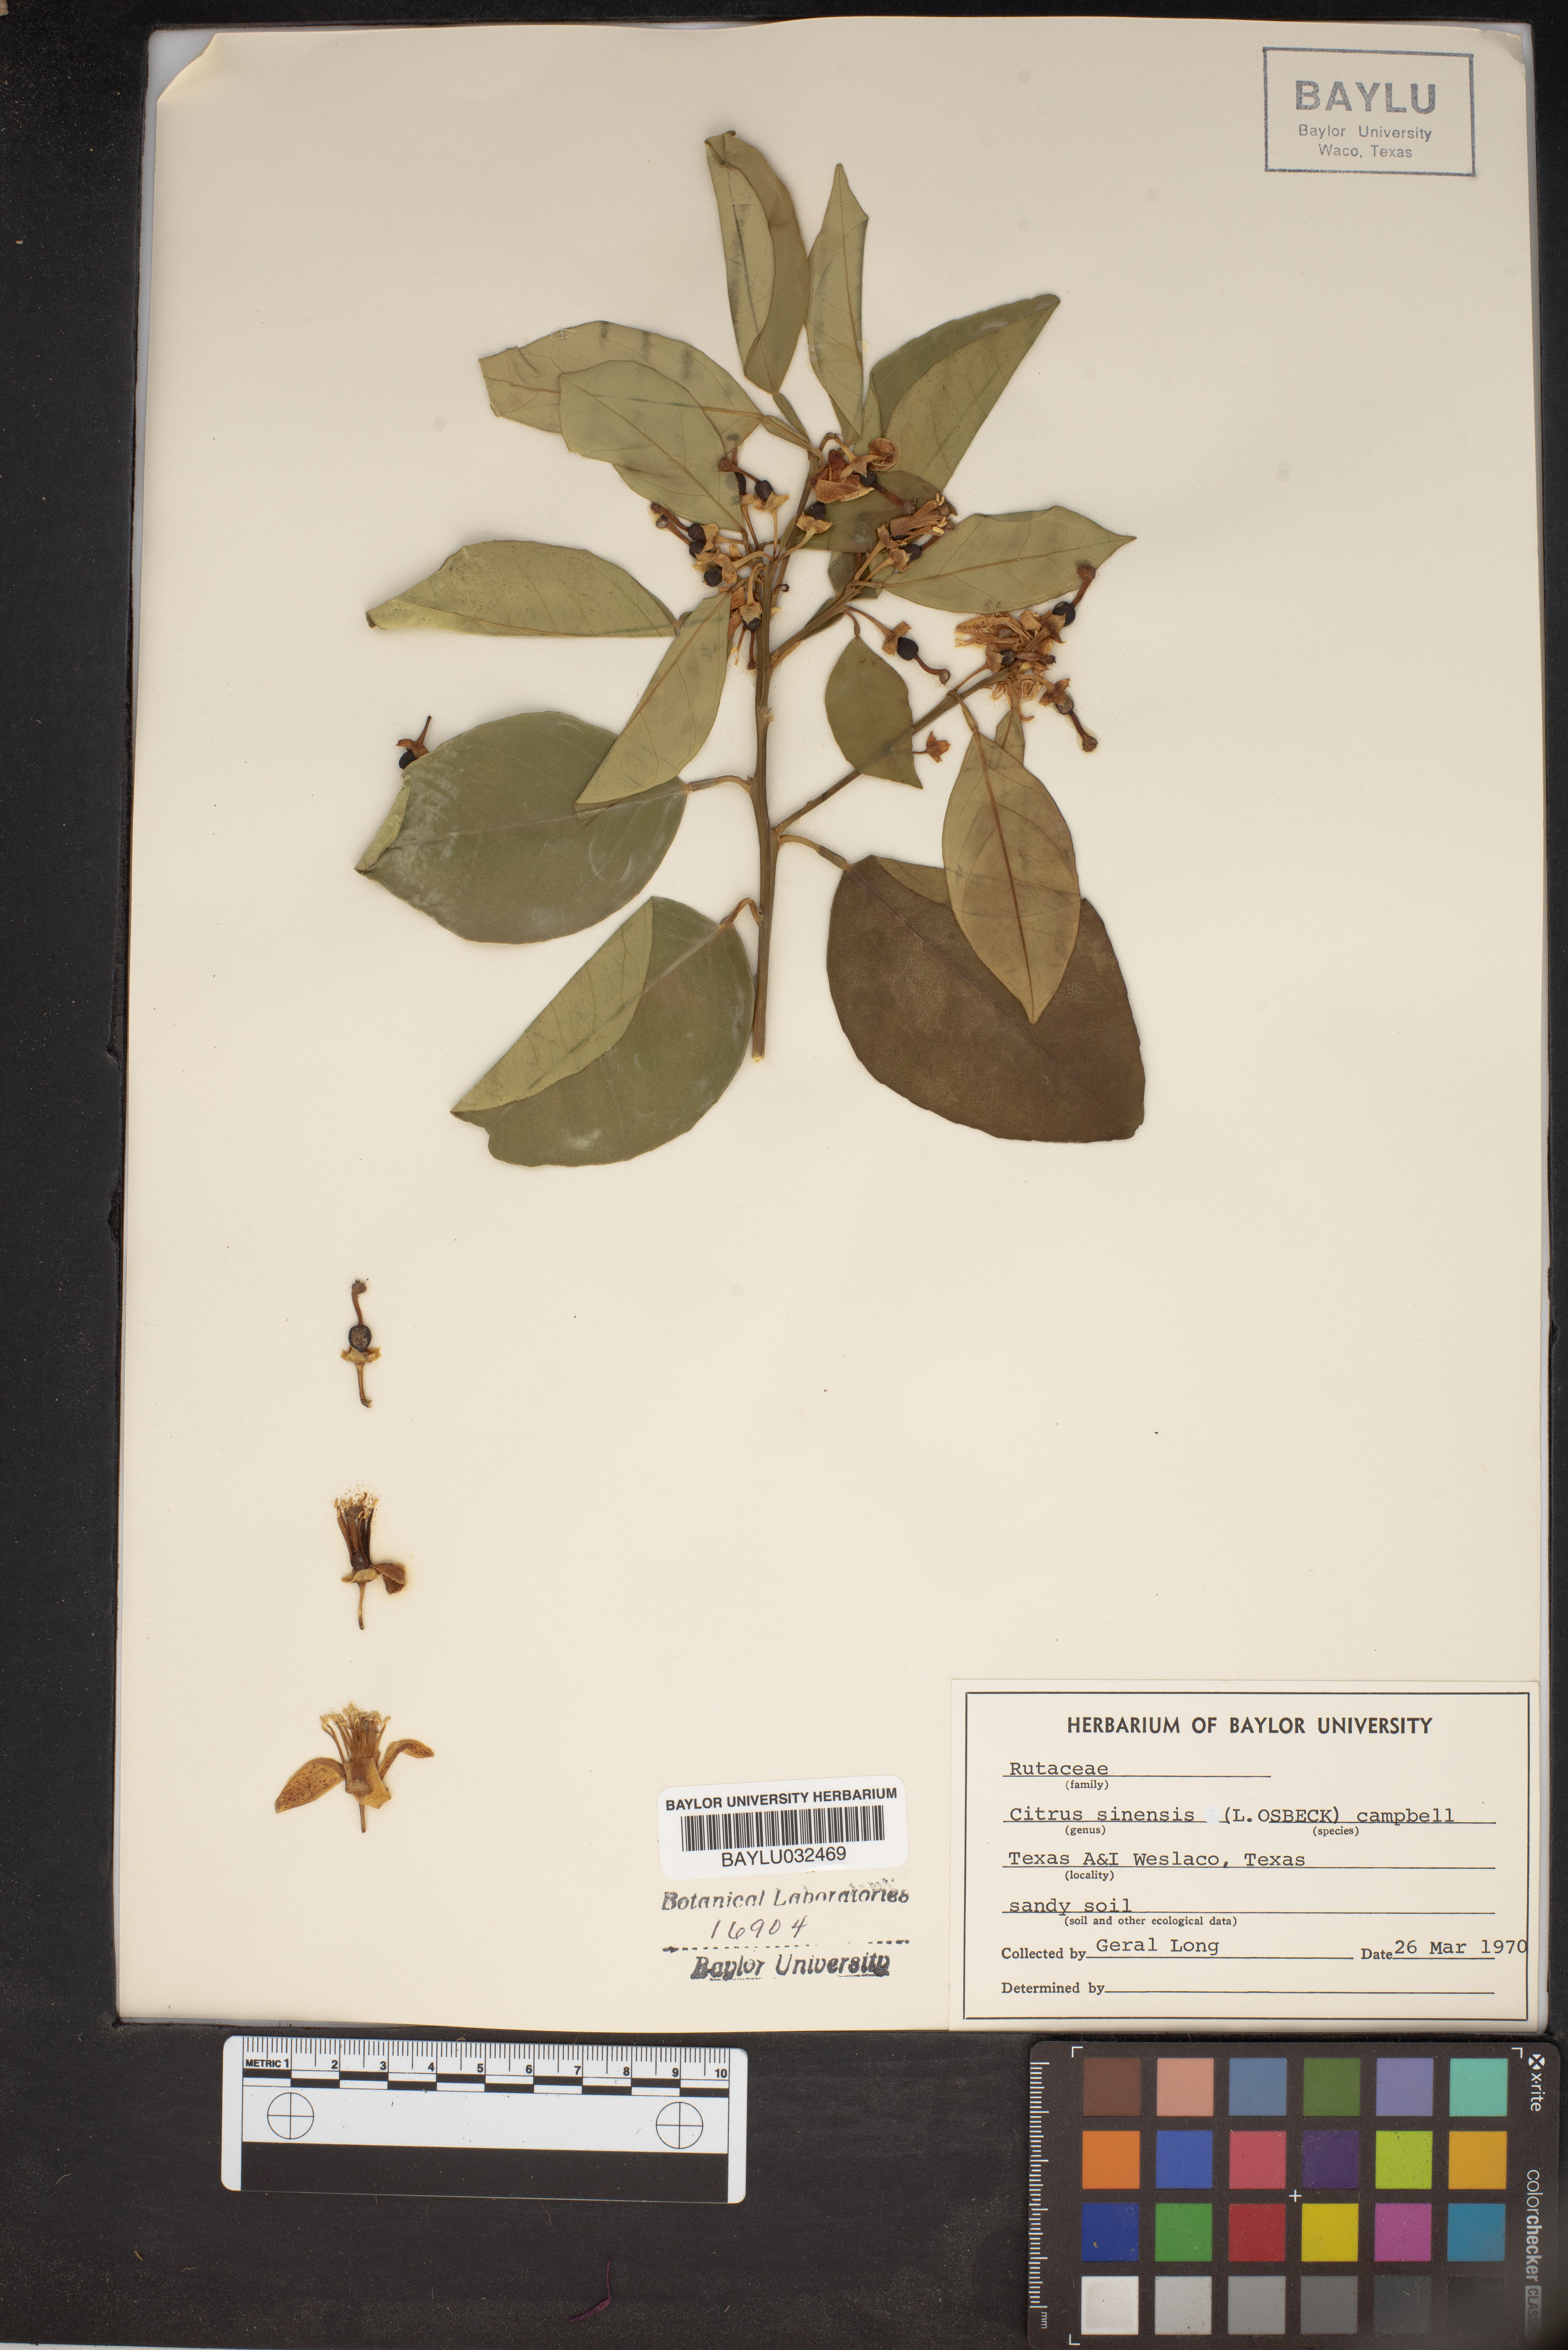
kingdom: Plantae
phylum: Tracheophyta
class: Magnoliopsida
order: Sapindales
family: Rutaceae
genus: Citrus
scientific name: Citrus aurantium
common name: Sour orange
